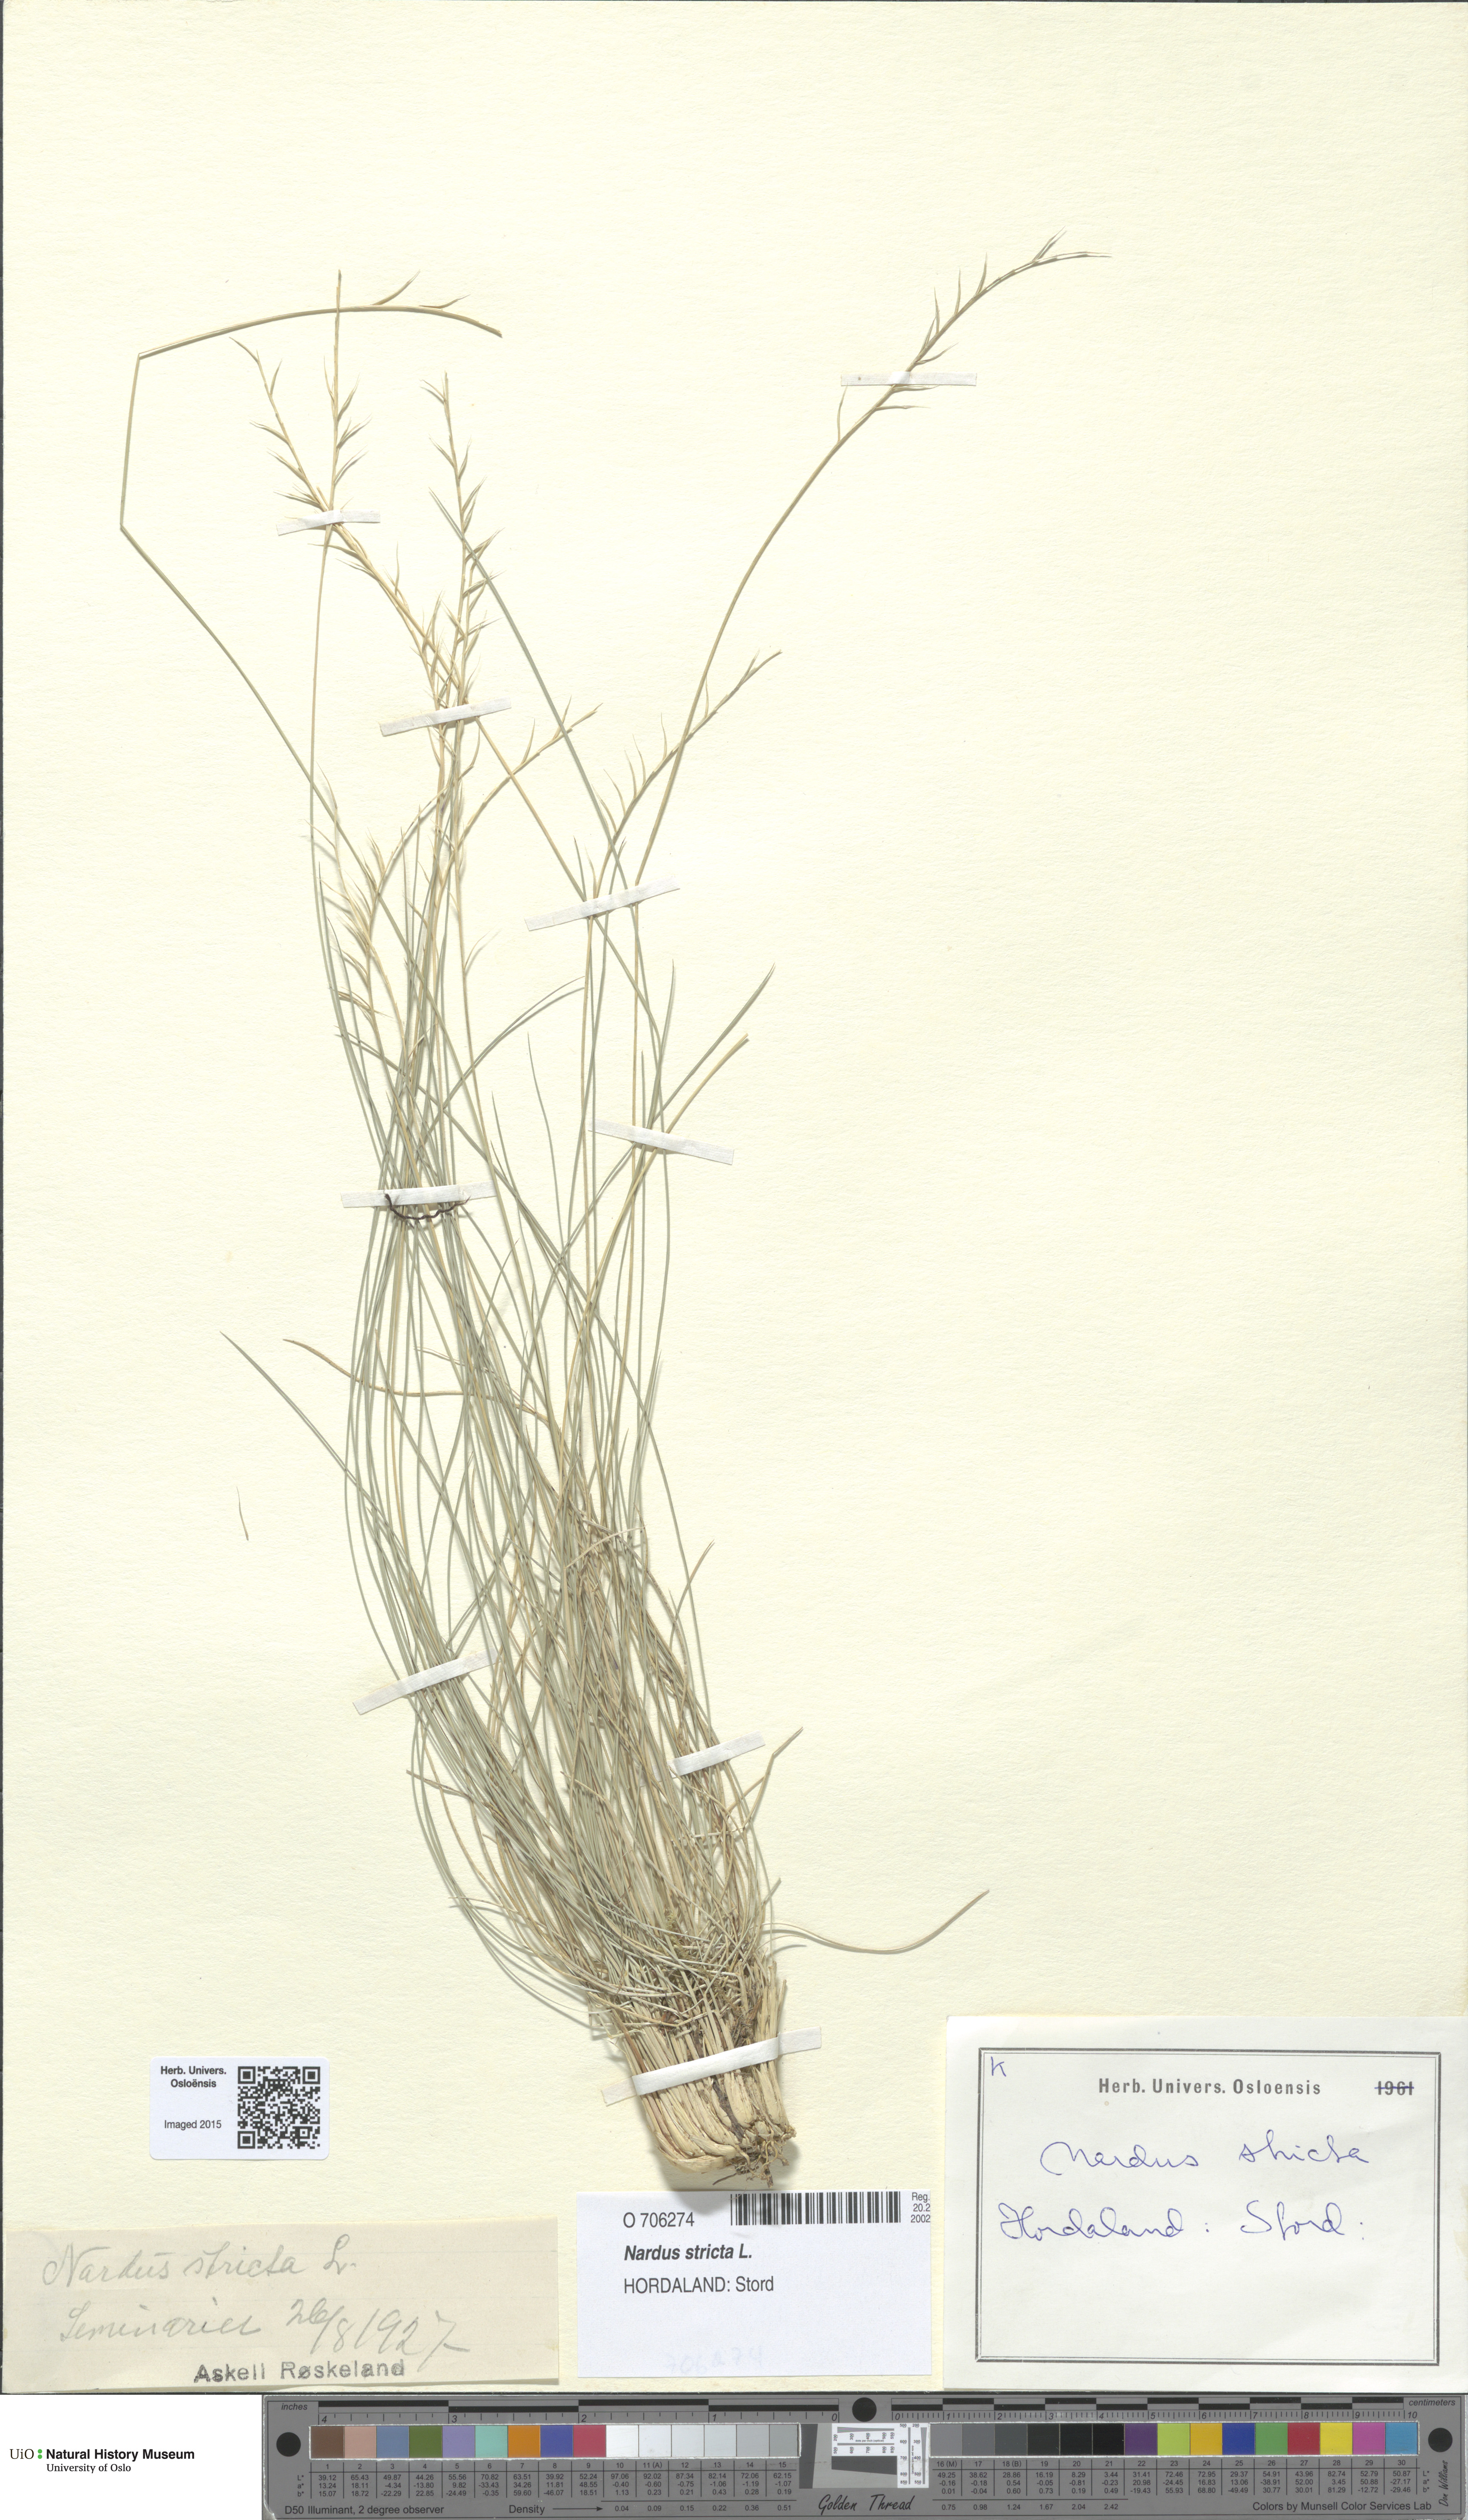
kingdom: Plantae
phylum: Tracheophyta
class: Liliopsida
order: Poales
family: Poaceae
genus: Nardus
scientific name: Nardus stricta
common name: Mat-grass
